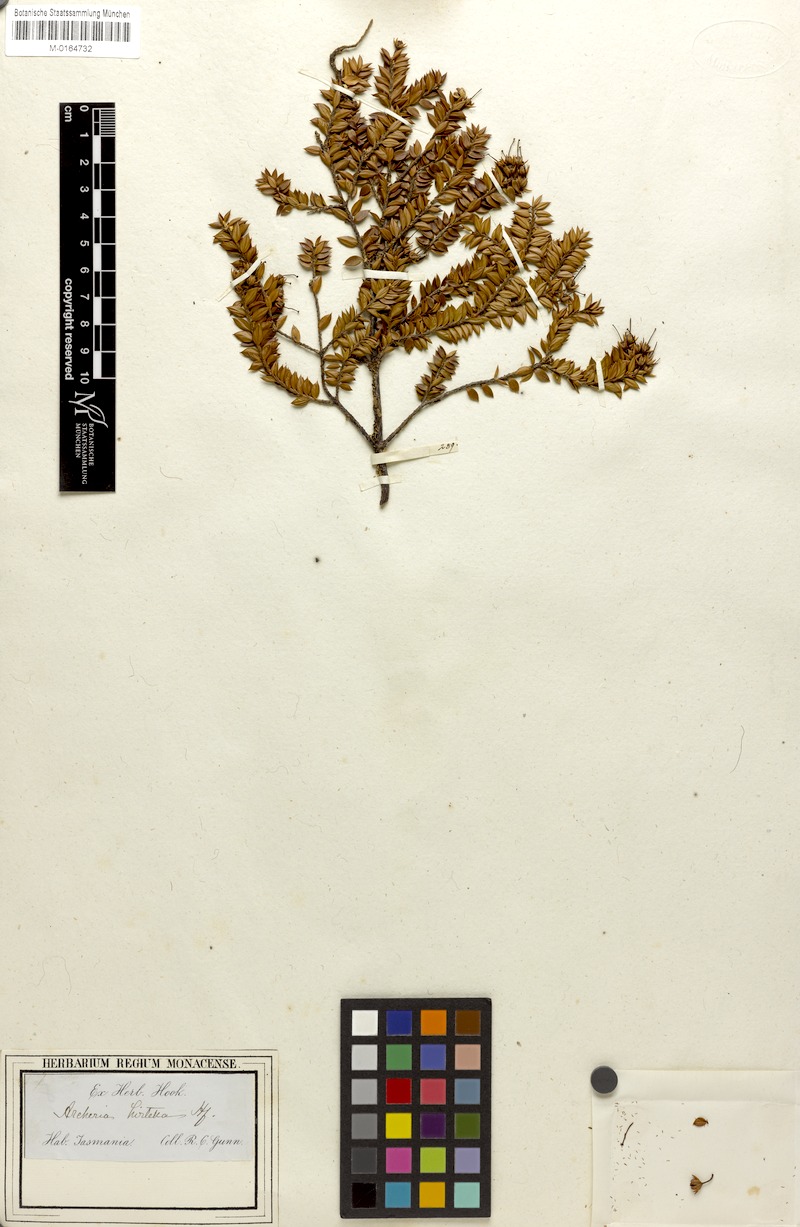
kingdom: Plantae
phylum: Tracheophyta
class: Magnoliopsida
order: Ericales
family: Ericaceae
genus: Archeria
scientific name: Archeria hirtella
